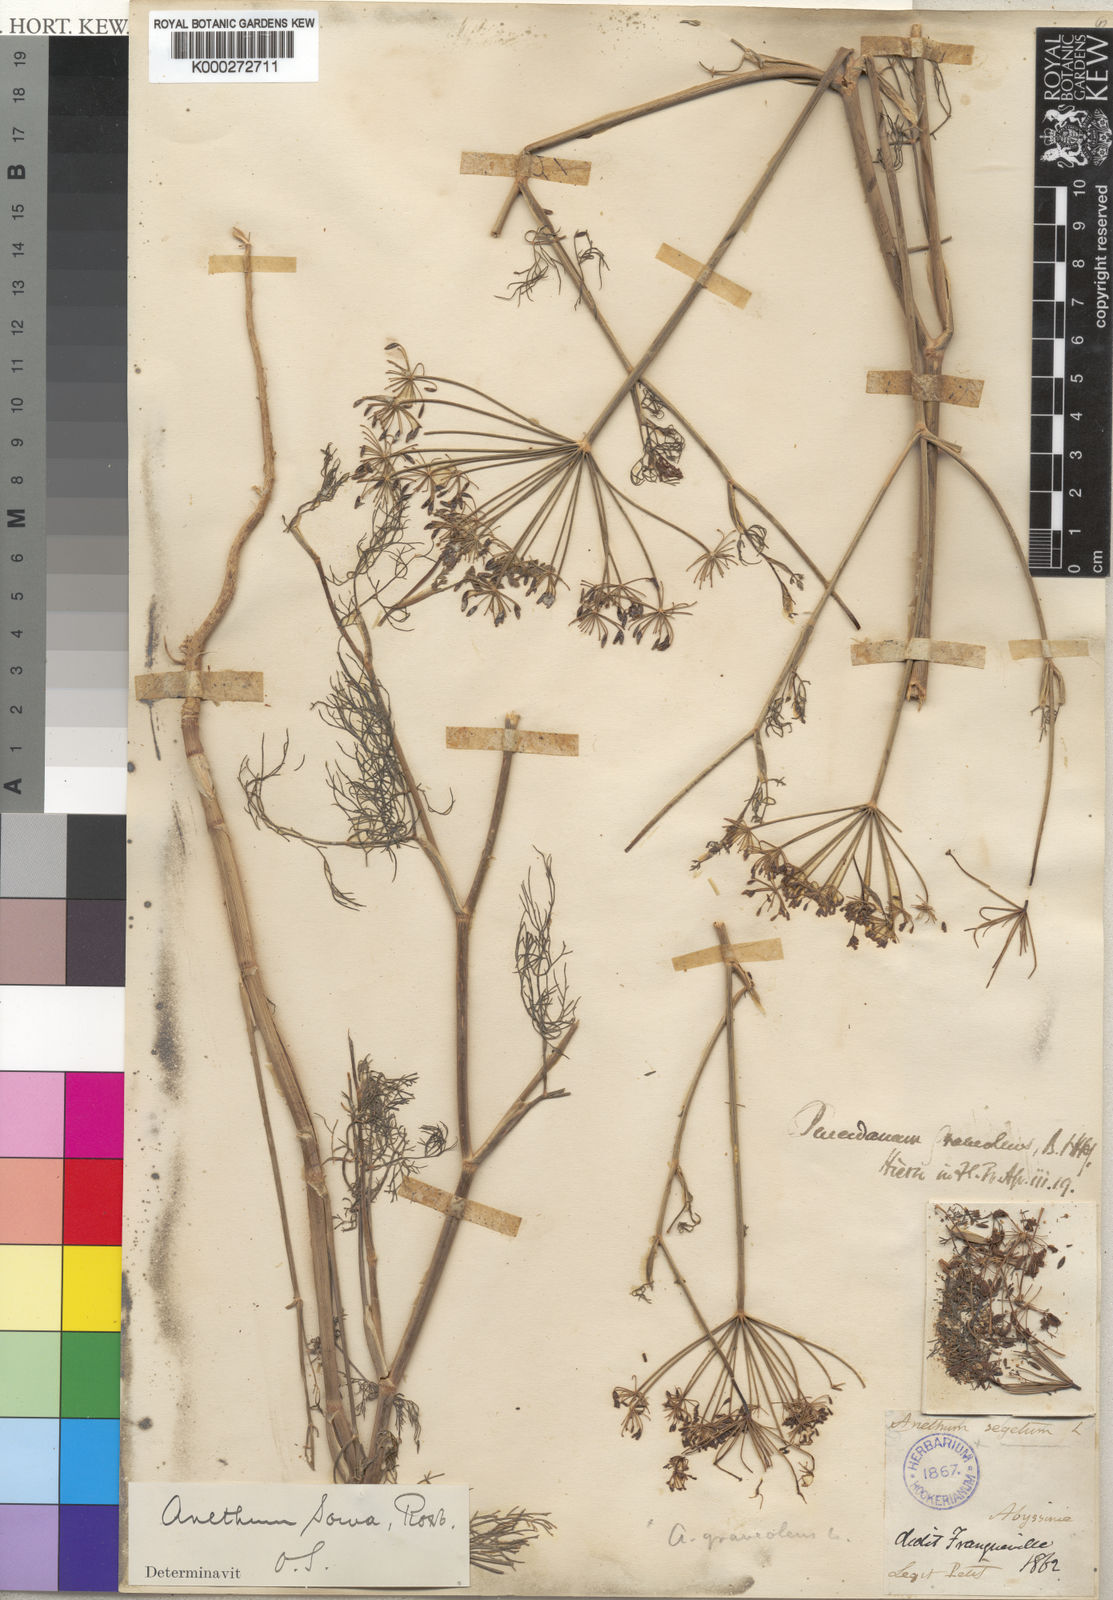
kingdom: Plantae
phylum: Tracheophyta
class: Magnoliopsida
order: Apiales
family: Apiaceae
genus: Anethum
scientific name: Anethum graveolens
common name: Dill
